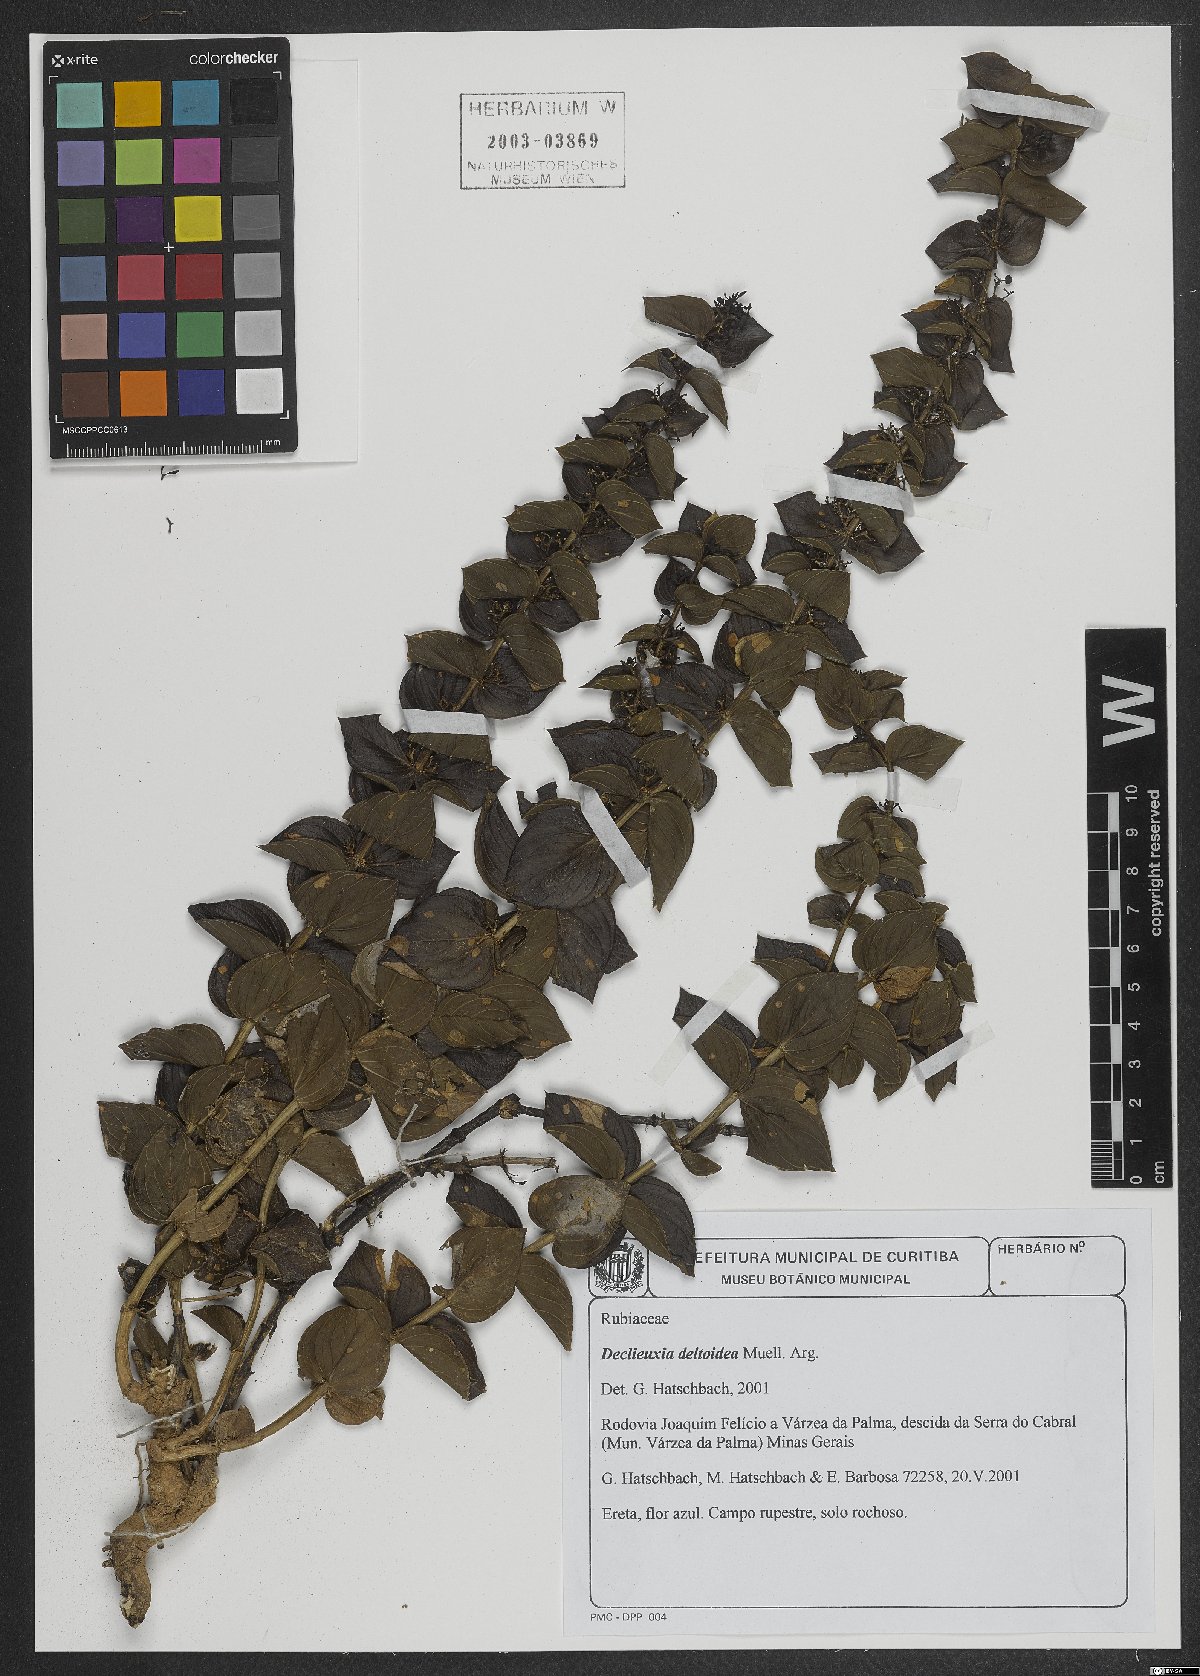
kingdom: Plantae
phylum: Tracheophyta
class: Magnoliopsida
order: Gentianales
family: Rubiaceae
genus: Declieuxia
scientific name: Declieuxia deltoidea
